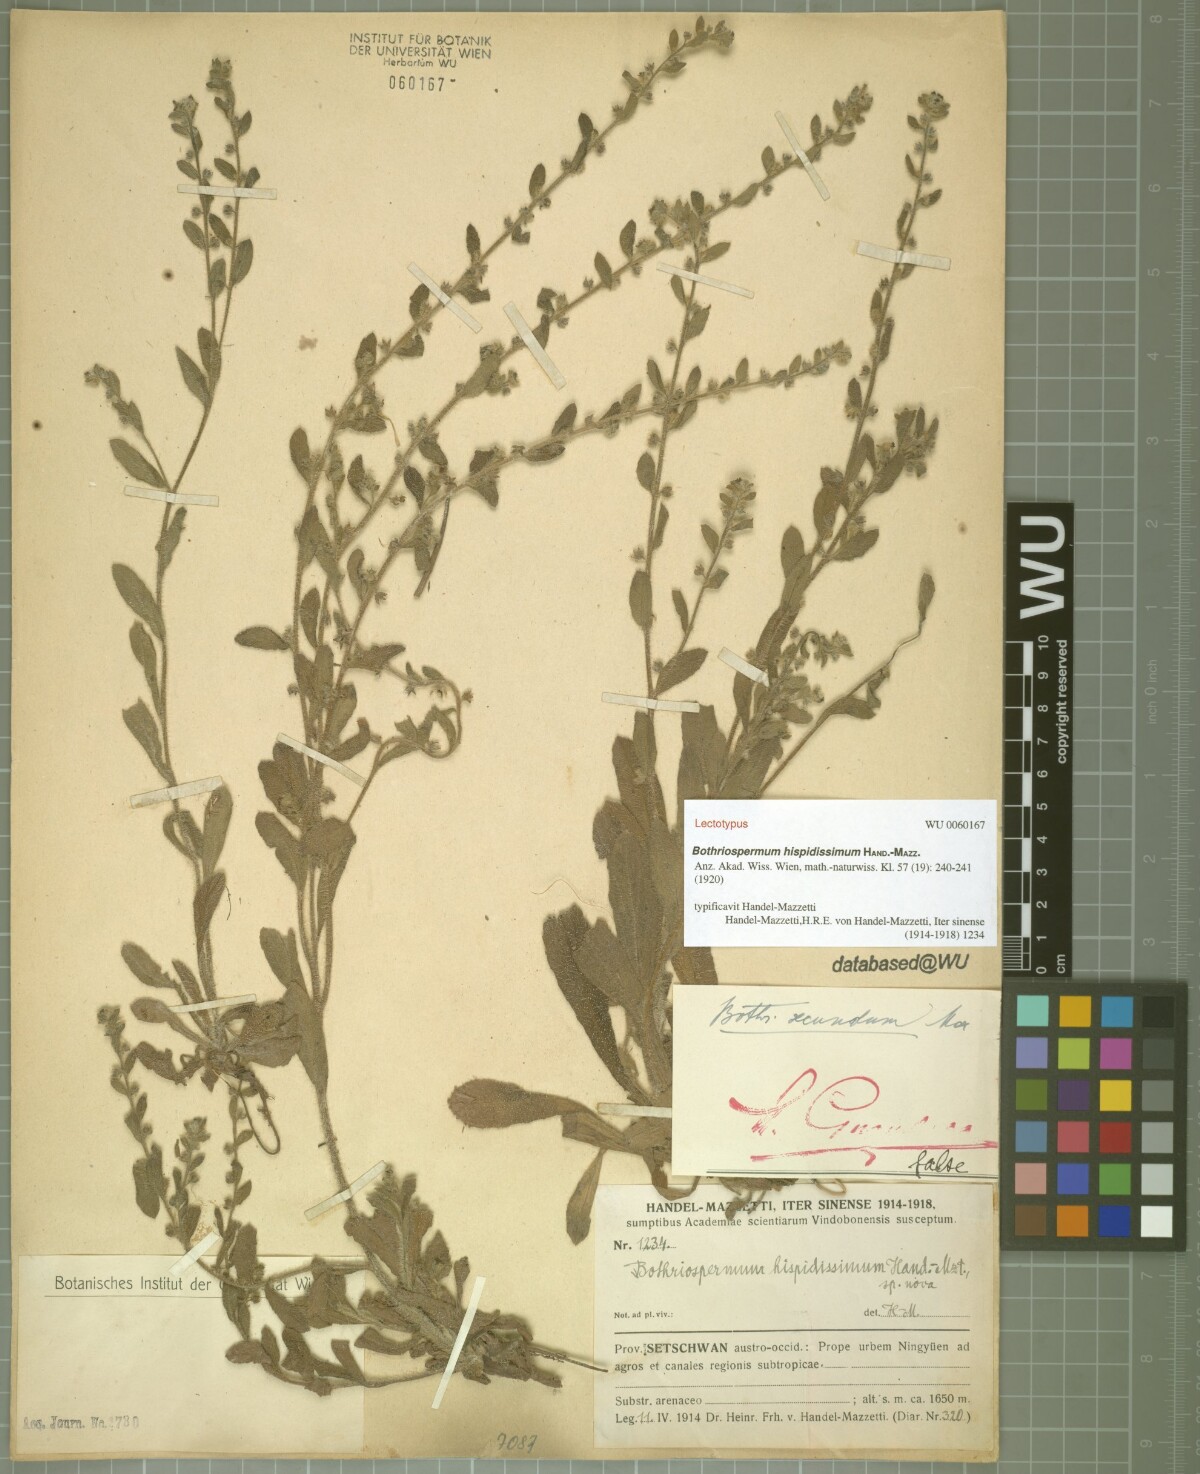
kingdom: Plantae
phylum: Tracheophyta
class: Magnoliopsida
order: Boraginales
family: Boraginaceae
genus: Bothriospermum
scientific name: Bothriospermum hispidissimum
